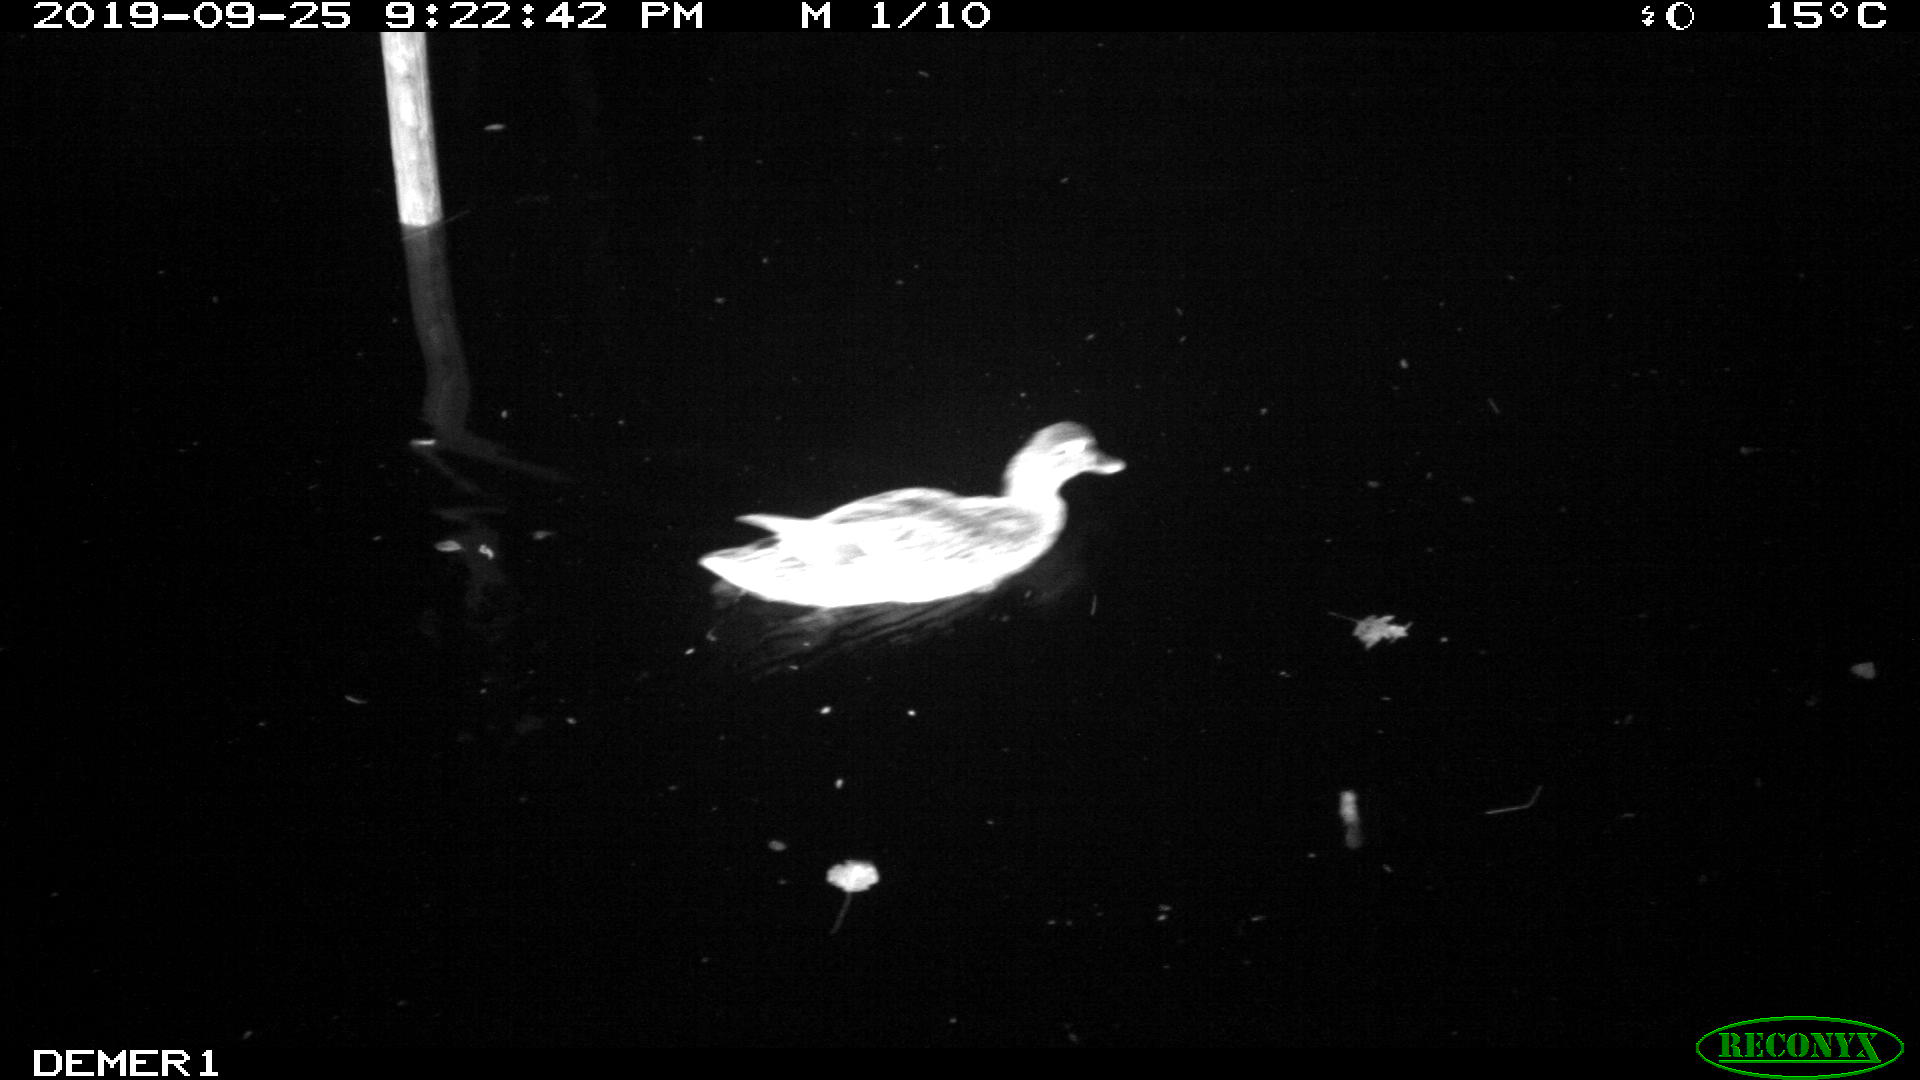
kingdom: Animalia
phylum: Chordata
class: Aves
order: Anseriformes
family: Anatidae
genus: Anas
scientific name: Anas platyrhynchos
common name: Mallard
